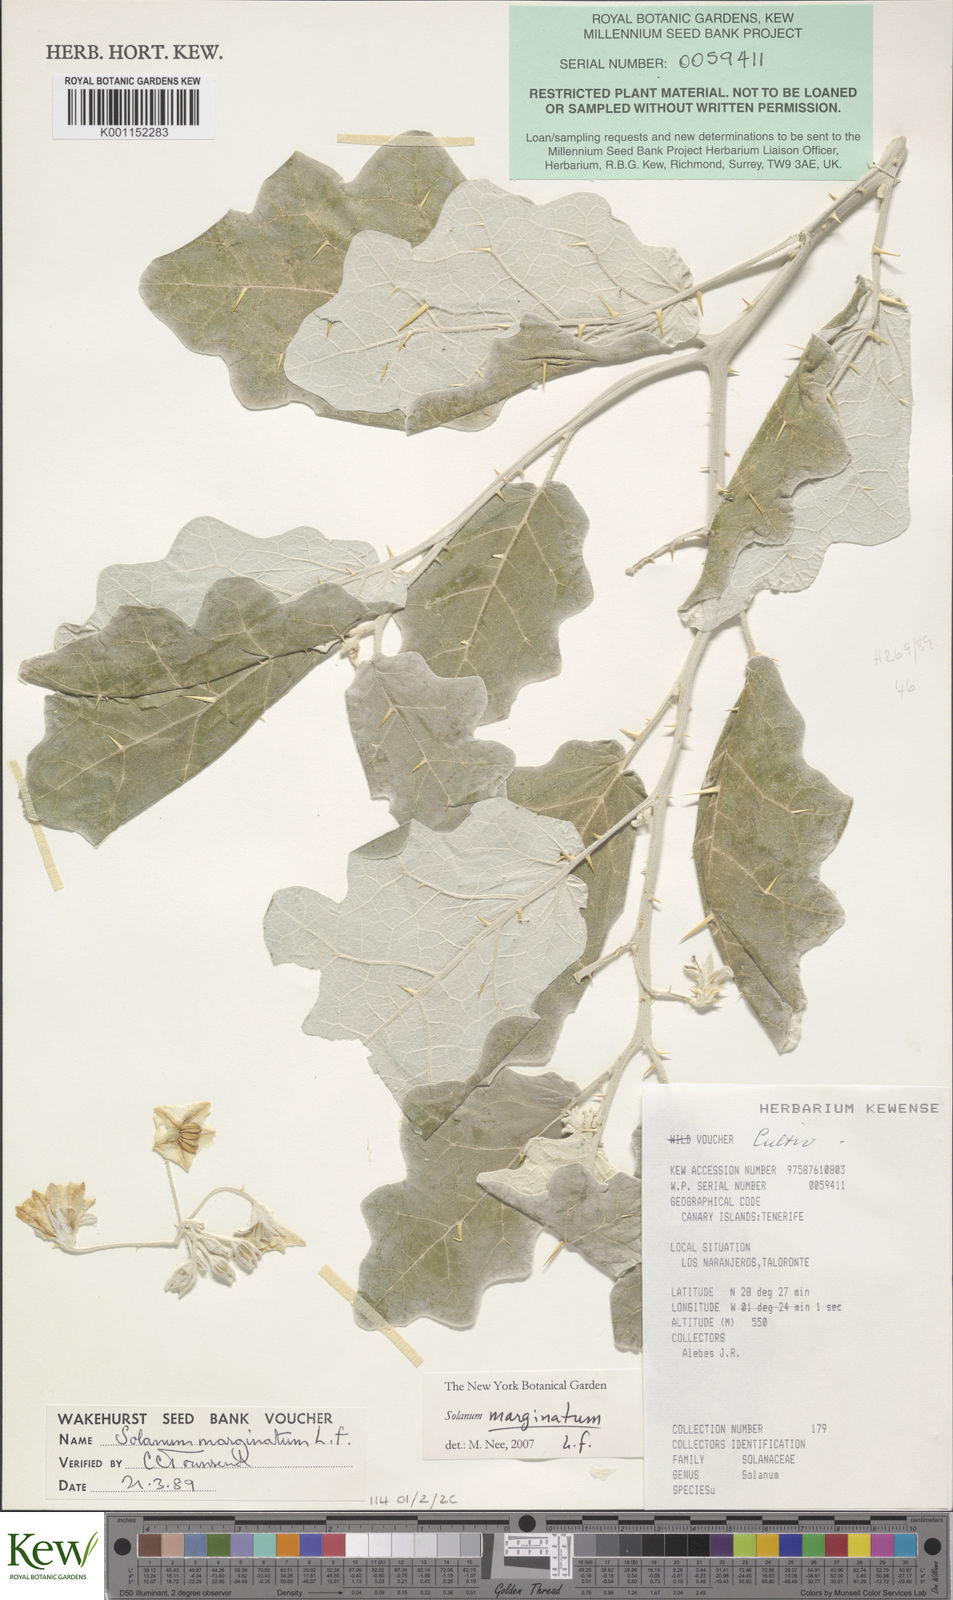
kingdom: Plantae
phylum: Tracheophyta
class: Magnoliopsida
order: Solanales
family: Solanaceae
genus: Solanum
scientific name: Solanum marginatum
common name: Purple african nightshade
